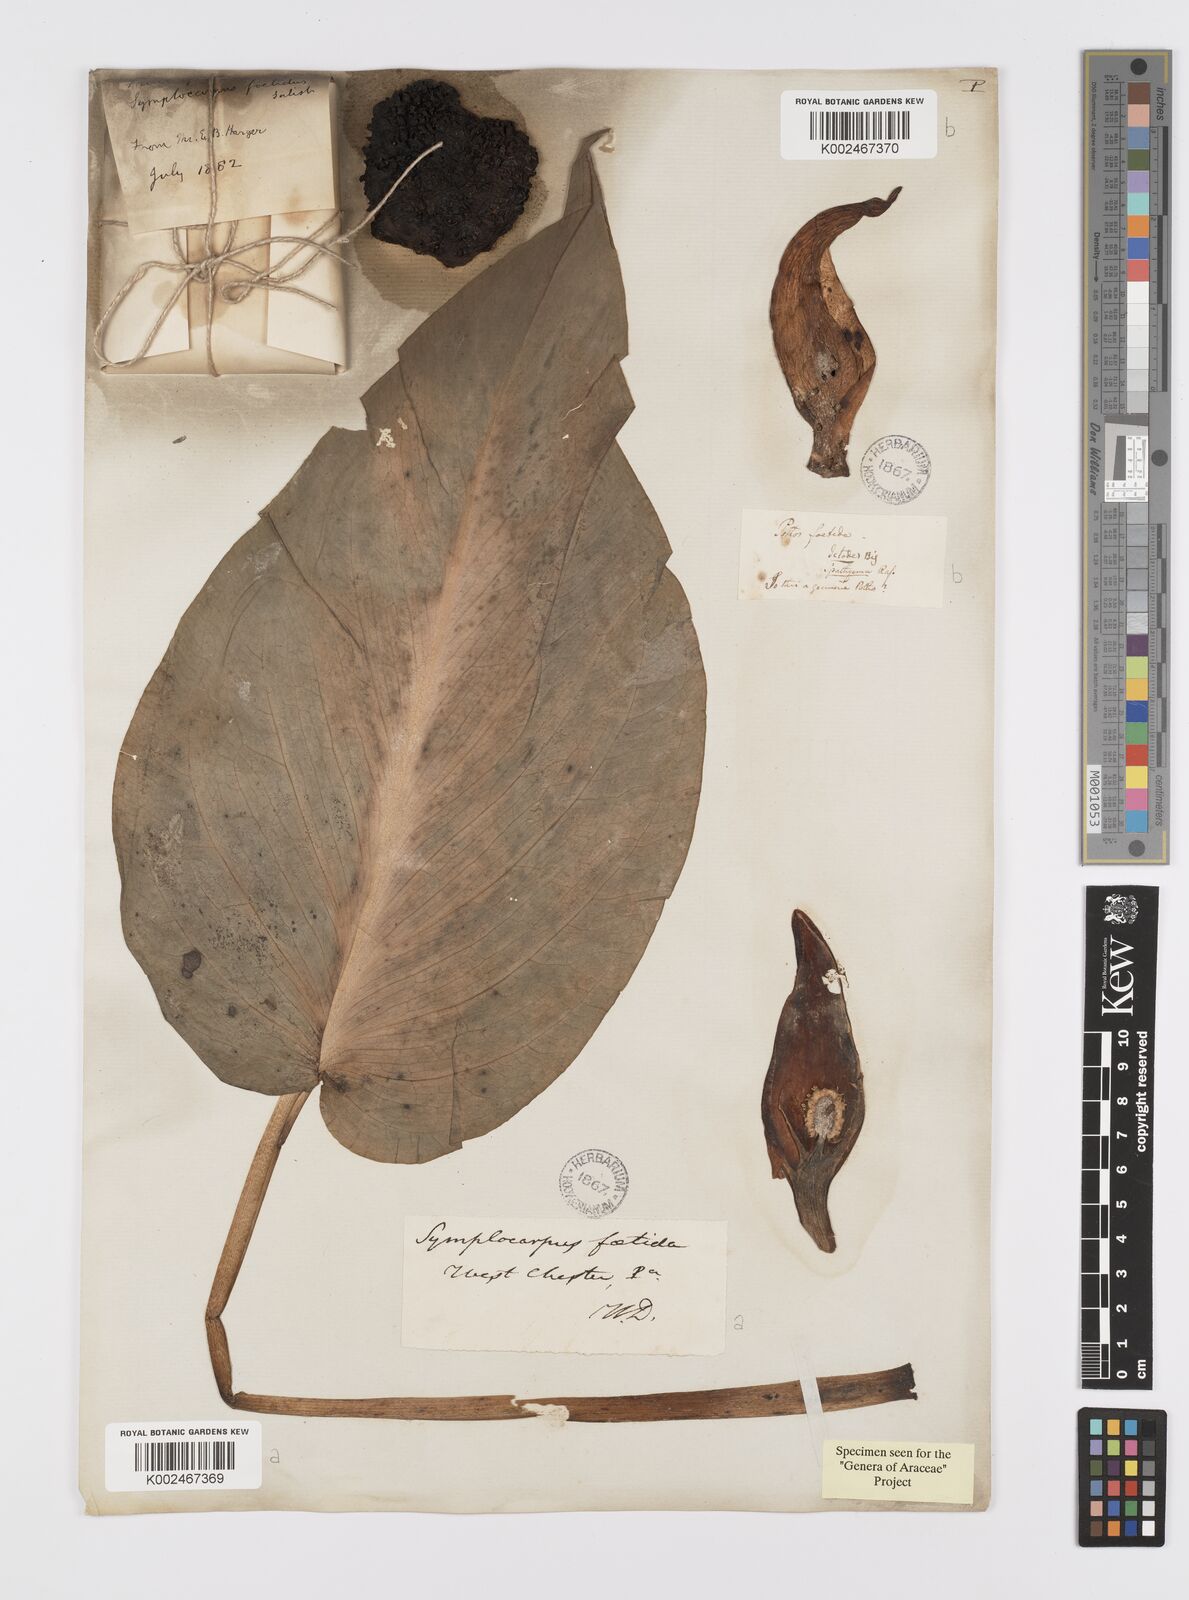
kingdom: Plantae
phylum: Tracheophyta
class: Liliopsida
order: Alismatales
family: Araceae
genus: Symplocarpus
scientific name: Symplocarpus foetidus
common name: Eastern skunk cabbage
